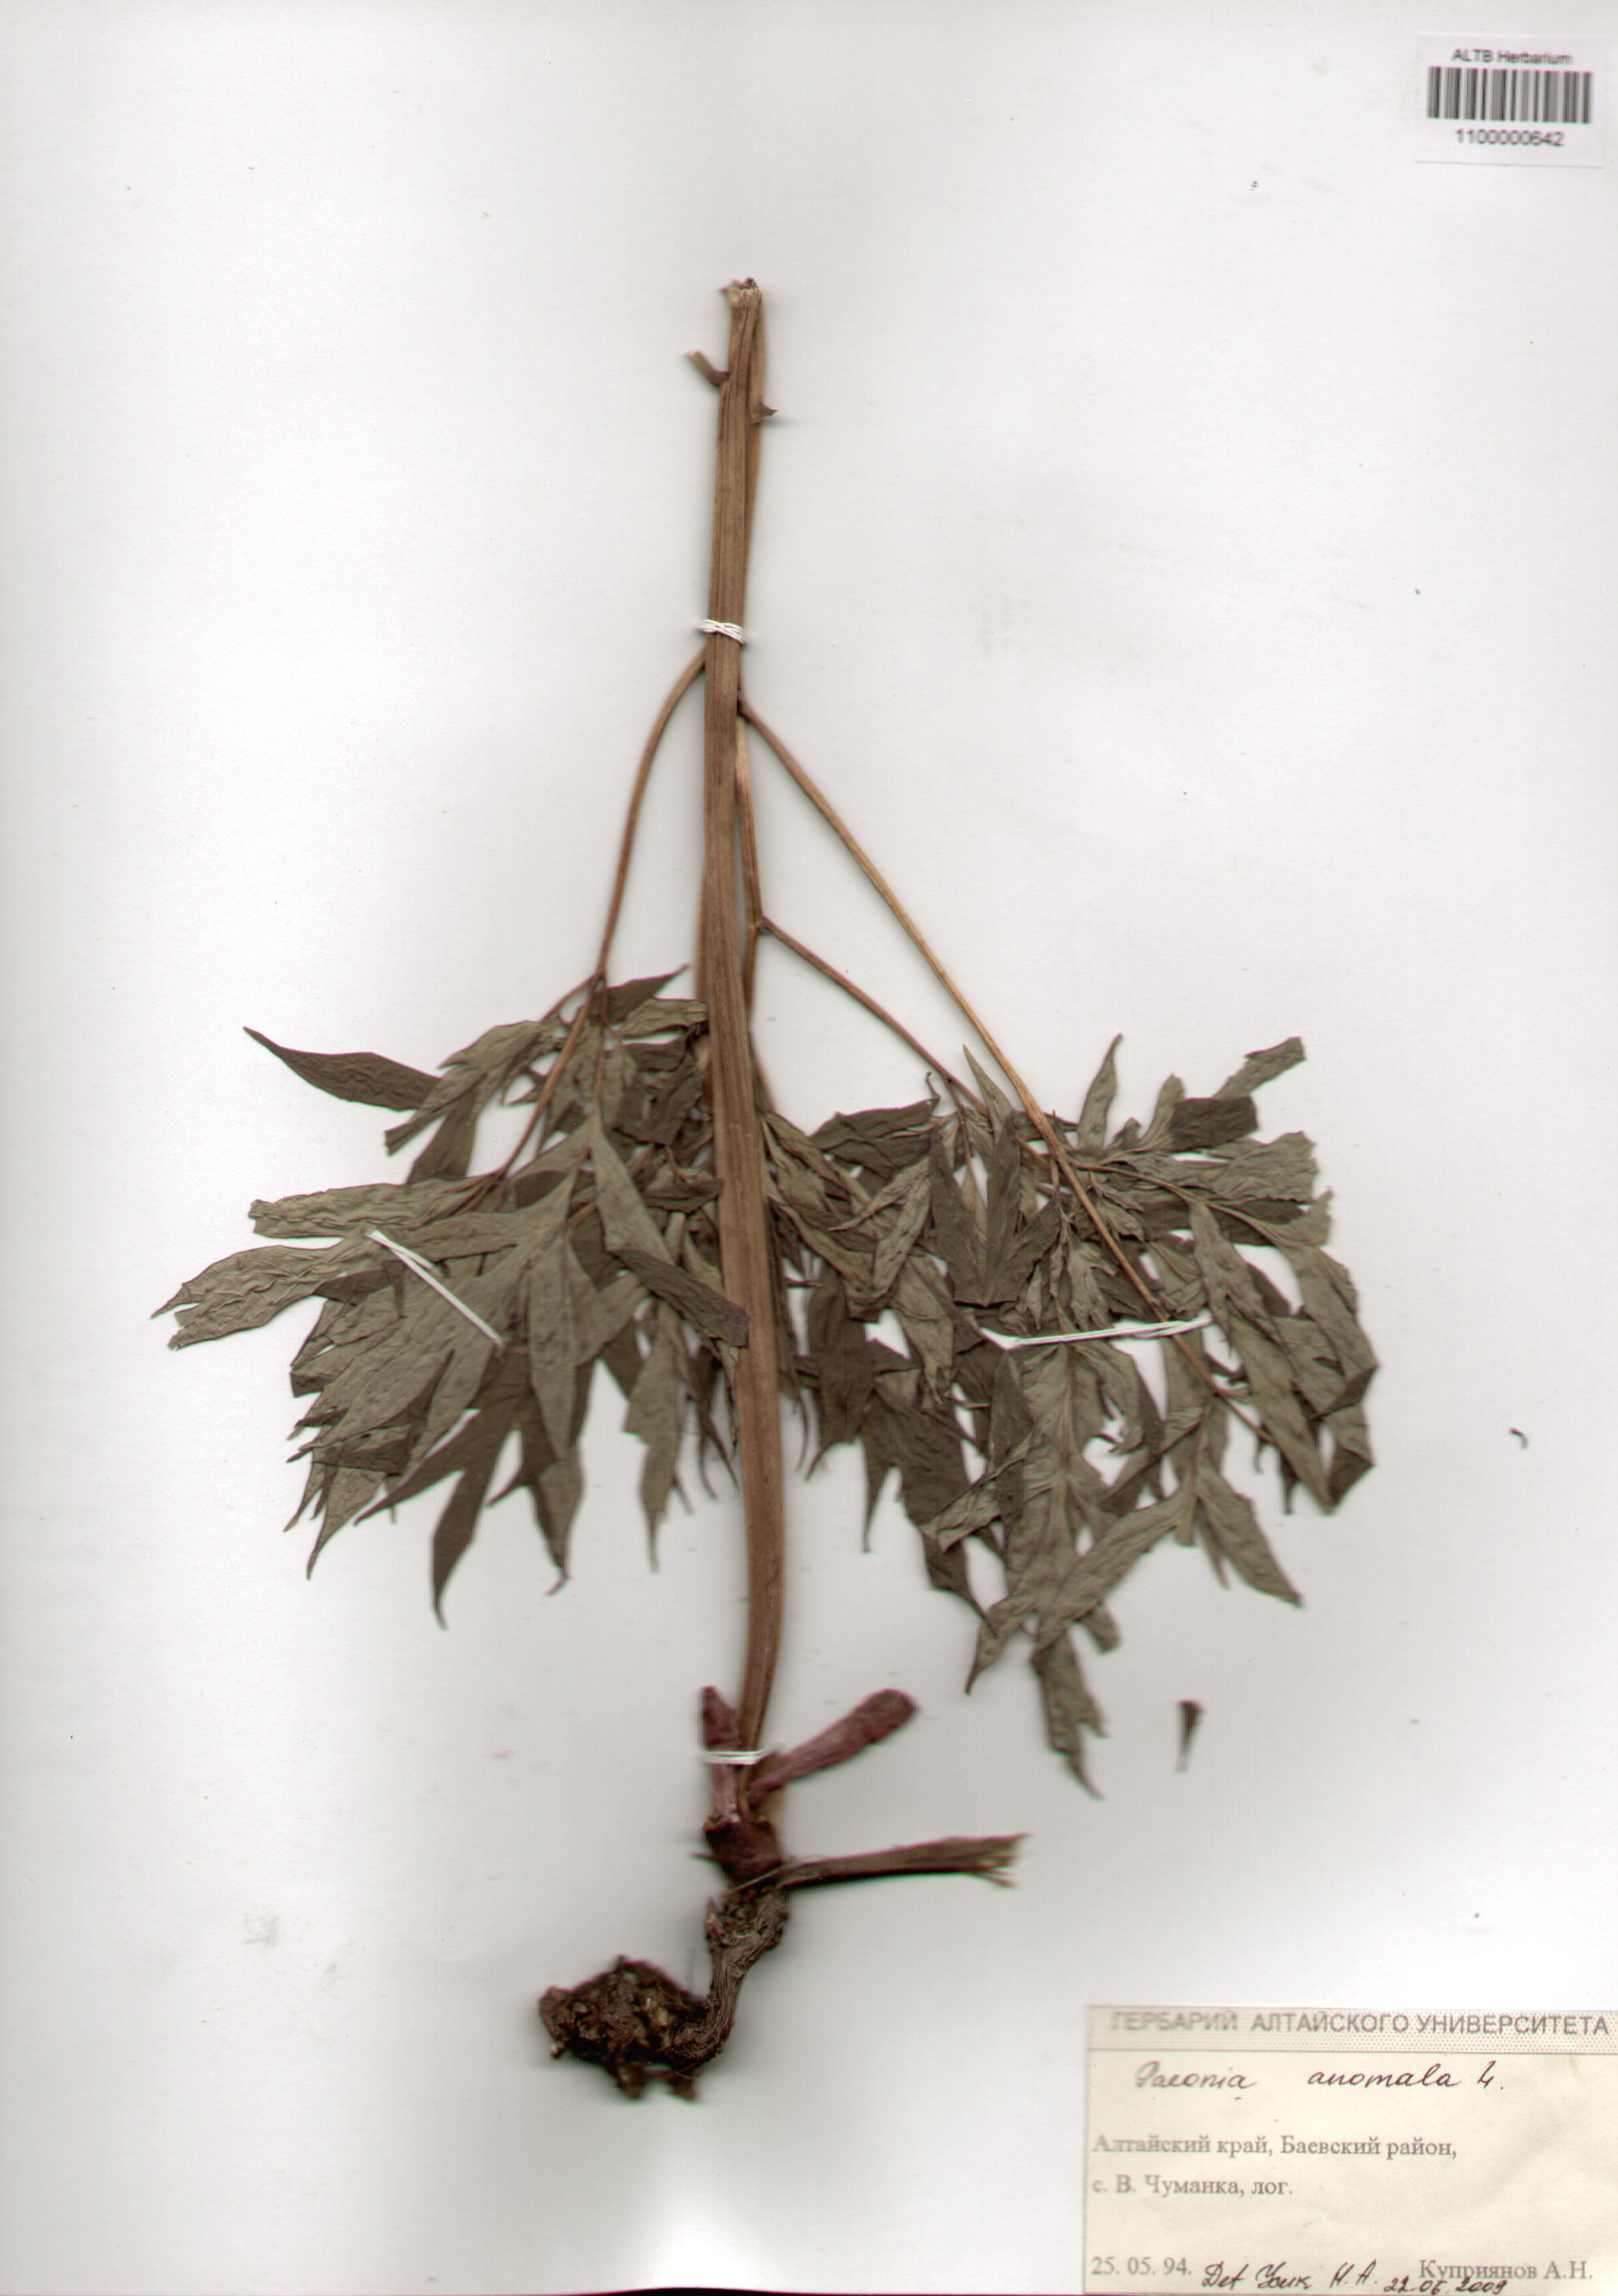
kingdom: Plantae
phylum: Tracheophyta
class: Magnoliopsida
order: Saxifragales
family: Paeoniaceae
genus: Paeonia
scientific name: Paeonia anomala
